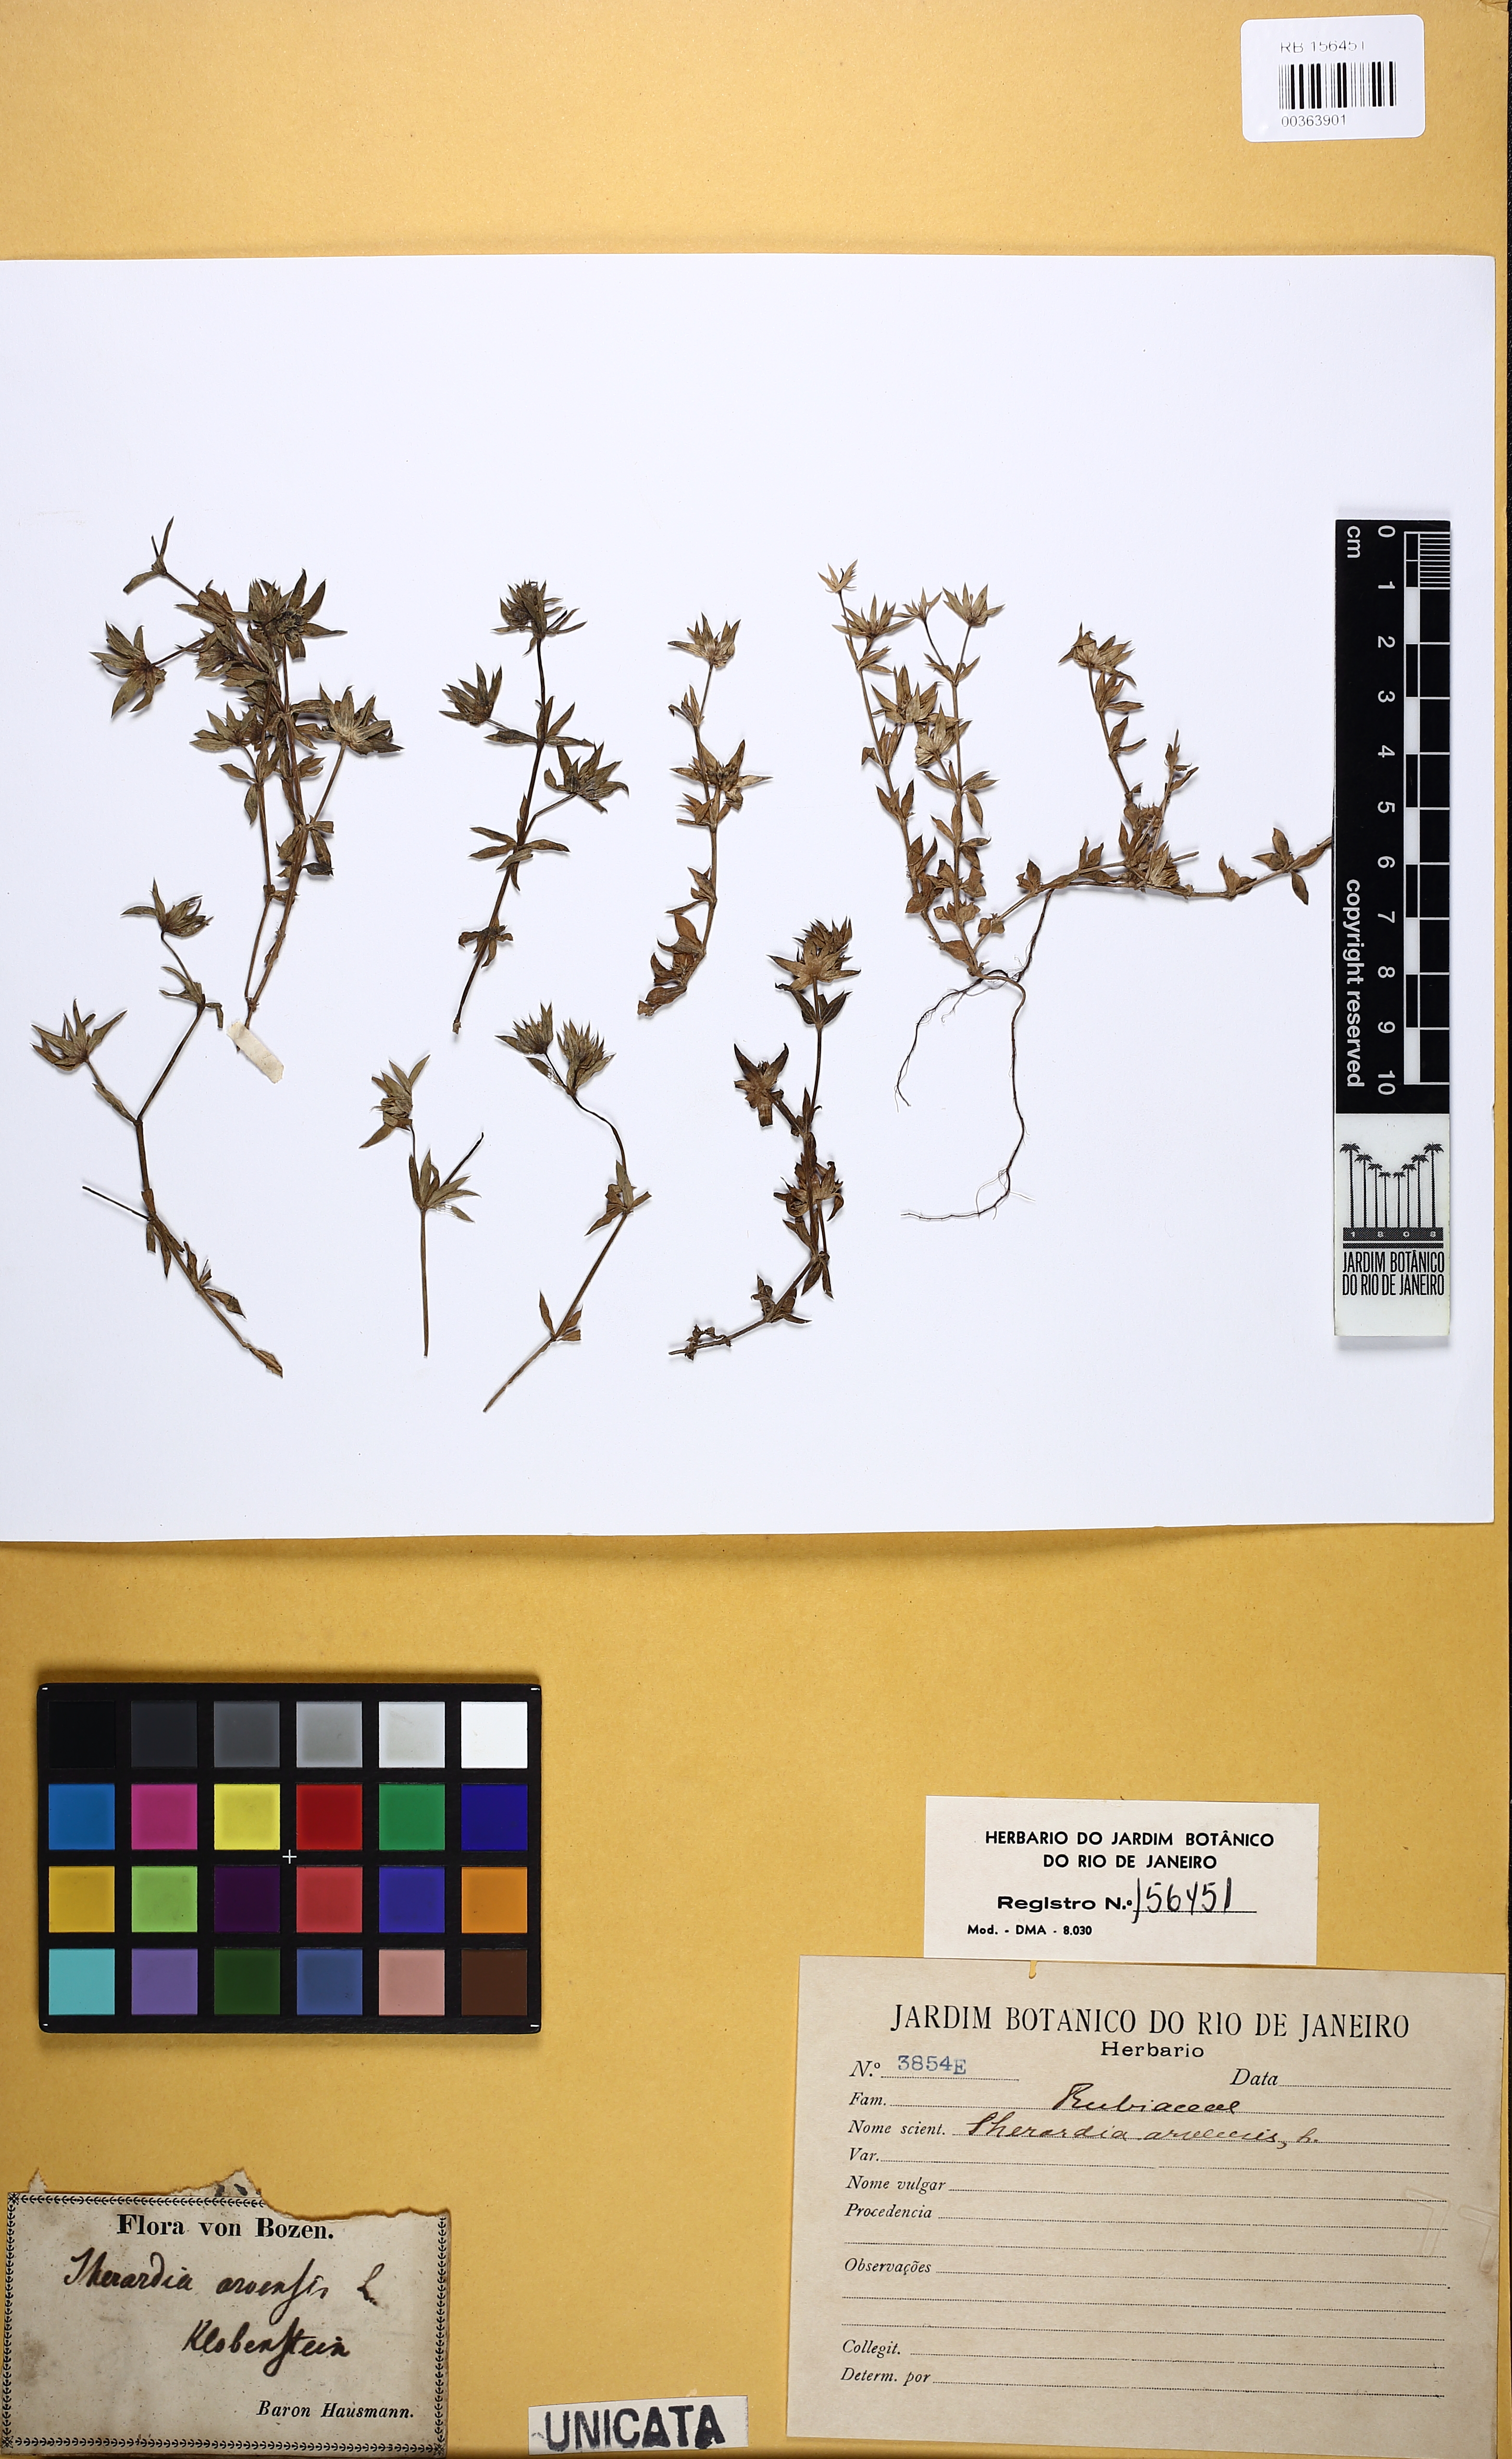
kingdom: Plantae
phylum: Tracheophyta
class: Magnoliopsida
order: Gentianales
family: Rubiaceae
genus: Sherardia
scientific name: Sherardia arvensis
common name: Field madder
